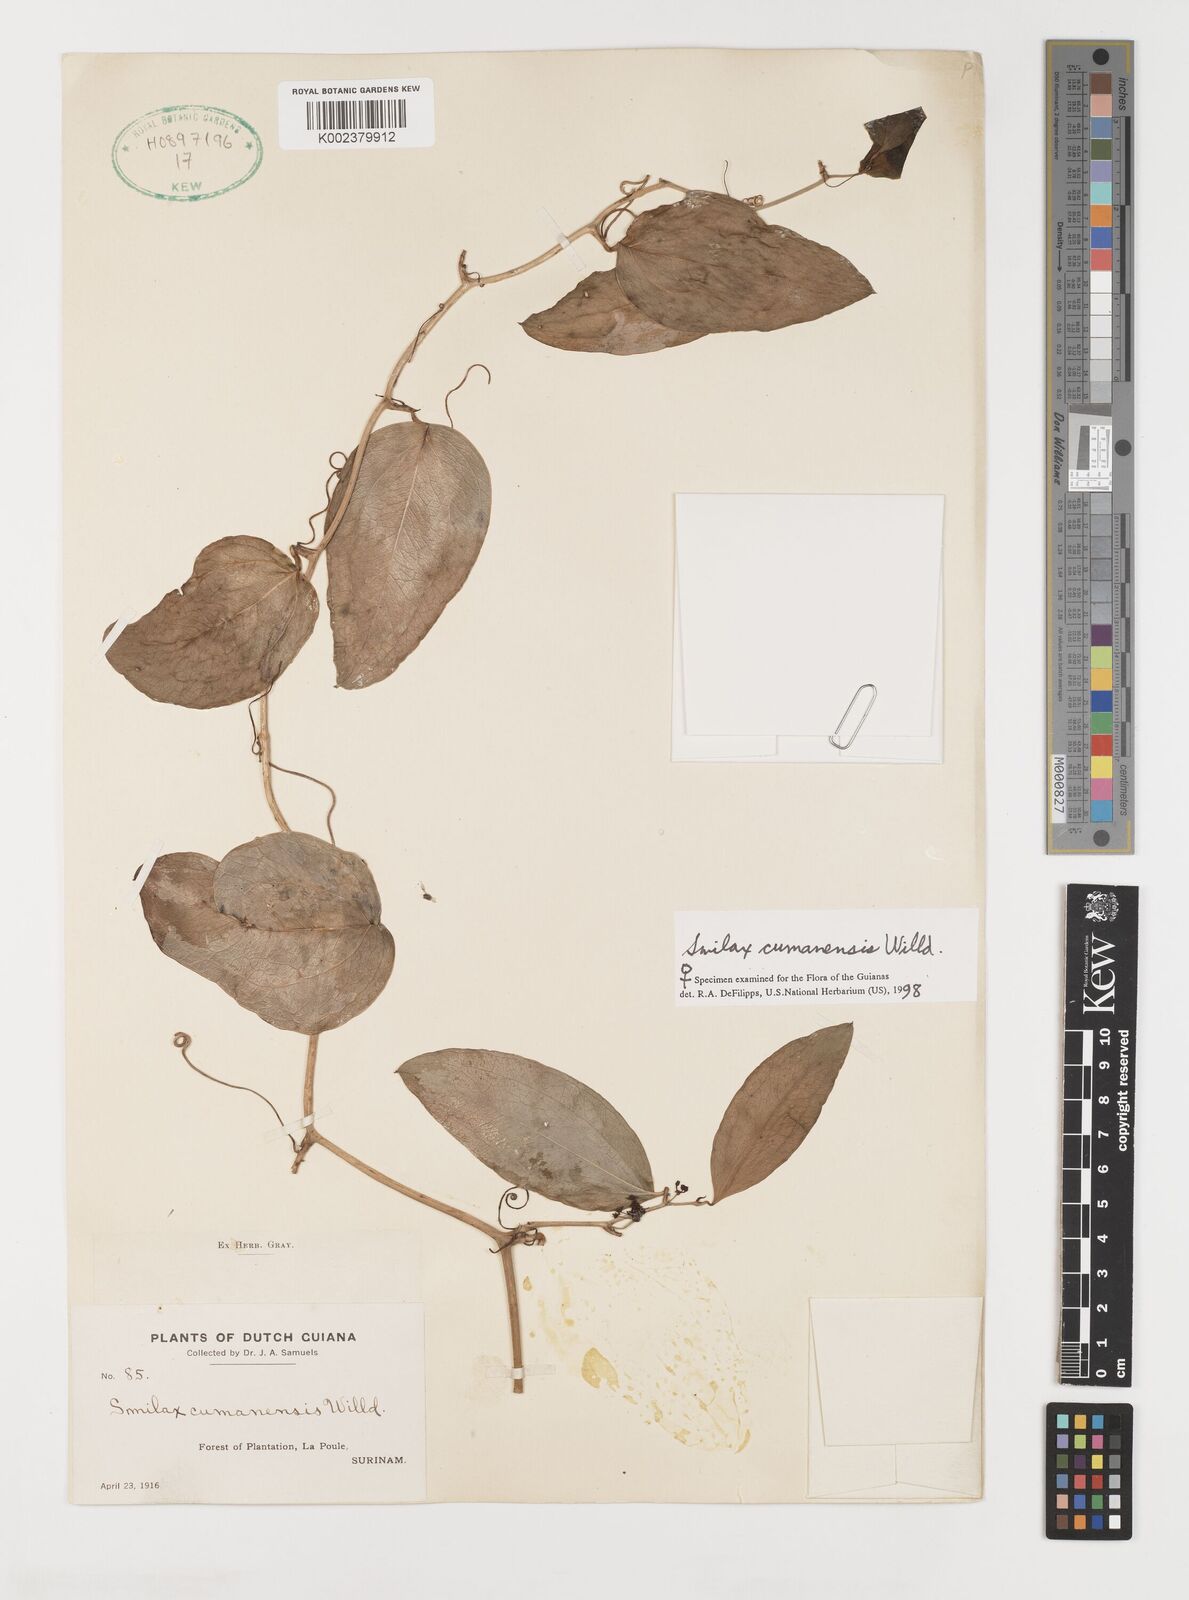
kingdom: Plantae
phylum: Tracheophyta
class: Liliopsida
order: Liliales
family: Smilacaceae
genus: Smilax
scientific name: Smilax oblongata
